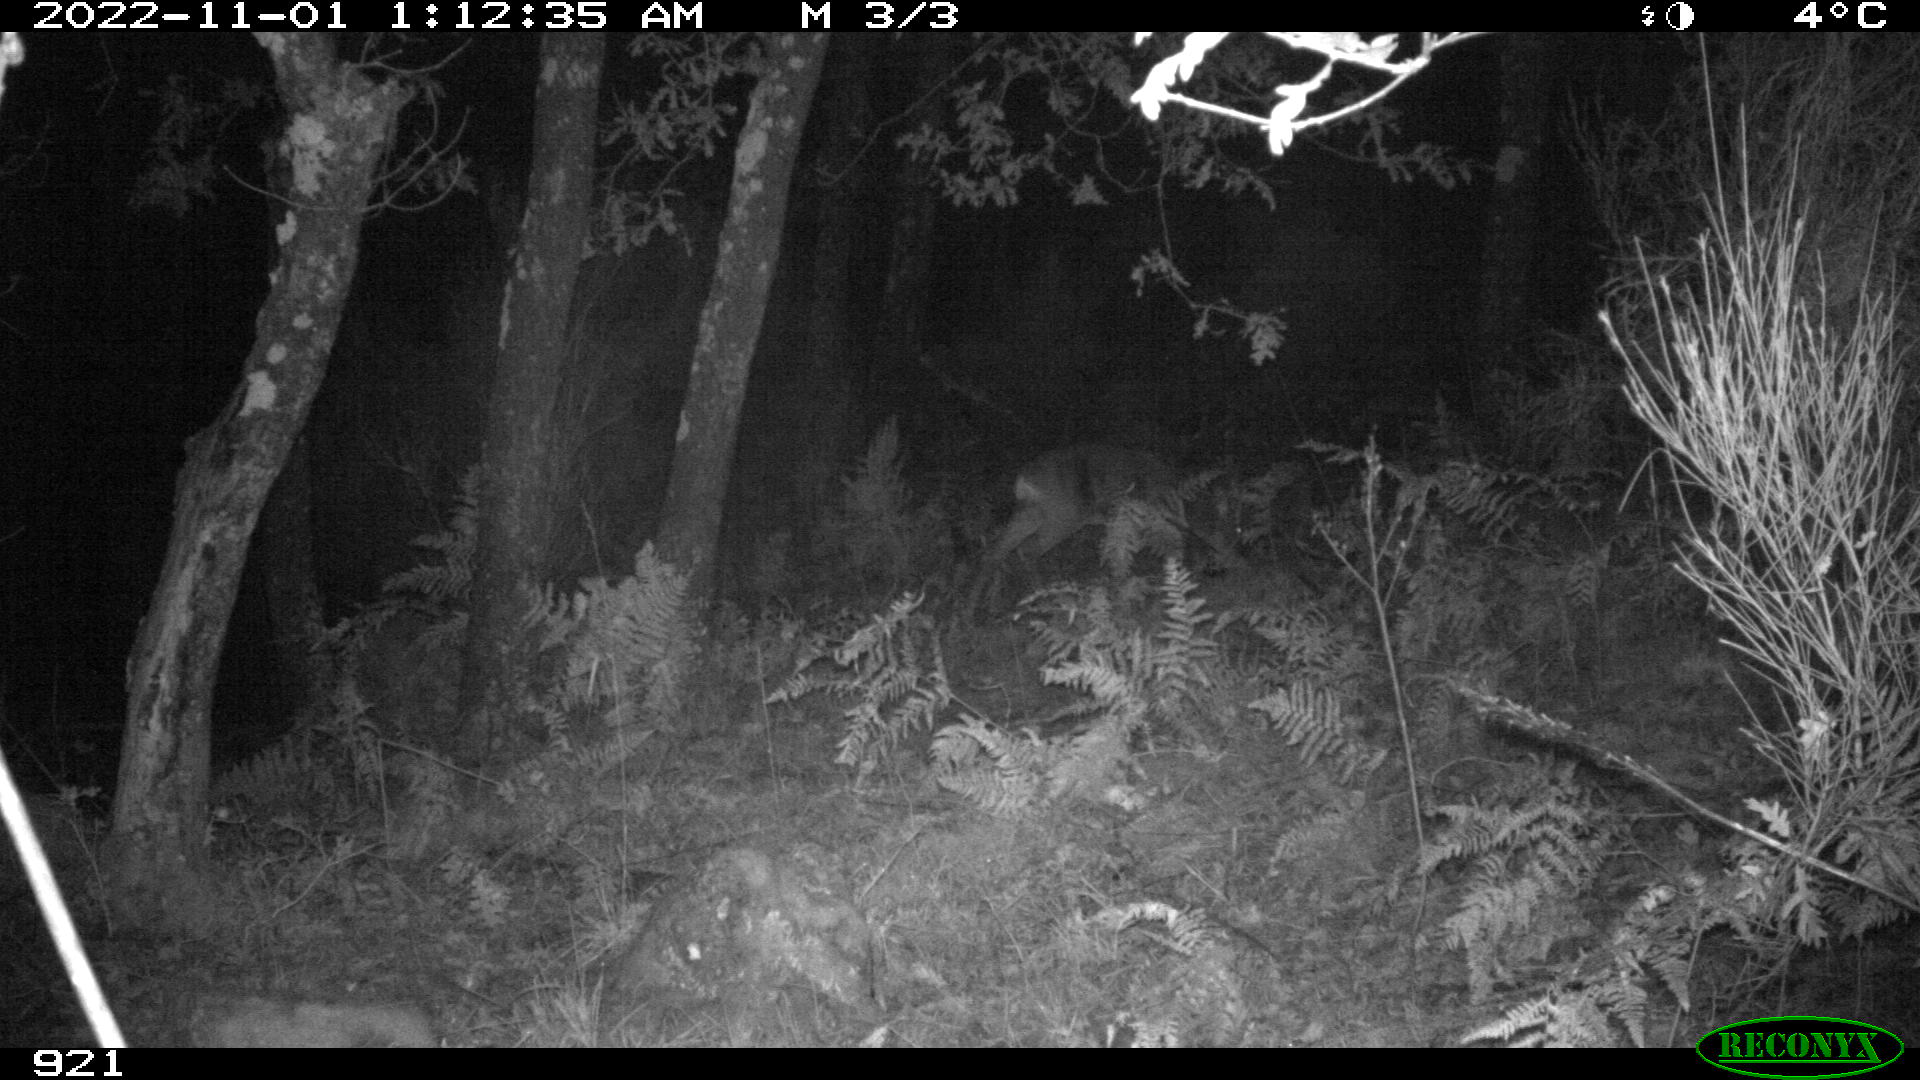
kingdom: Animalia
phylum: Chordata
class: Mammalia
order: Artiodactyla
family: Cervidae
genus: Capreolus
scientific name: Capreolus capreolus
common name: Western roe deer
